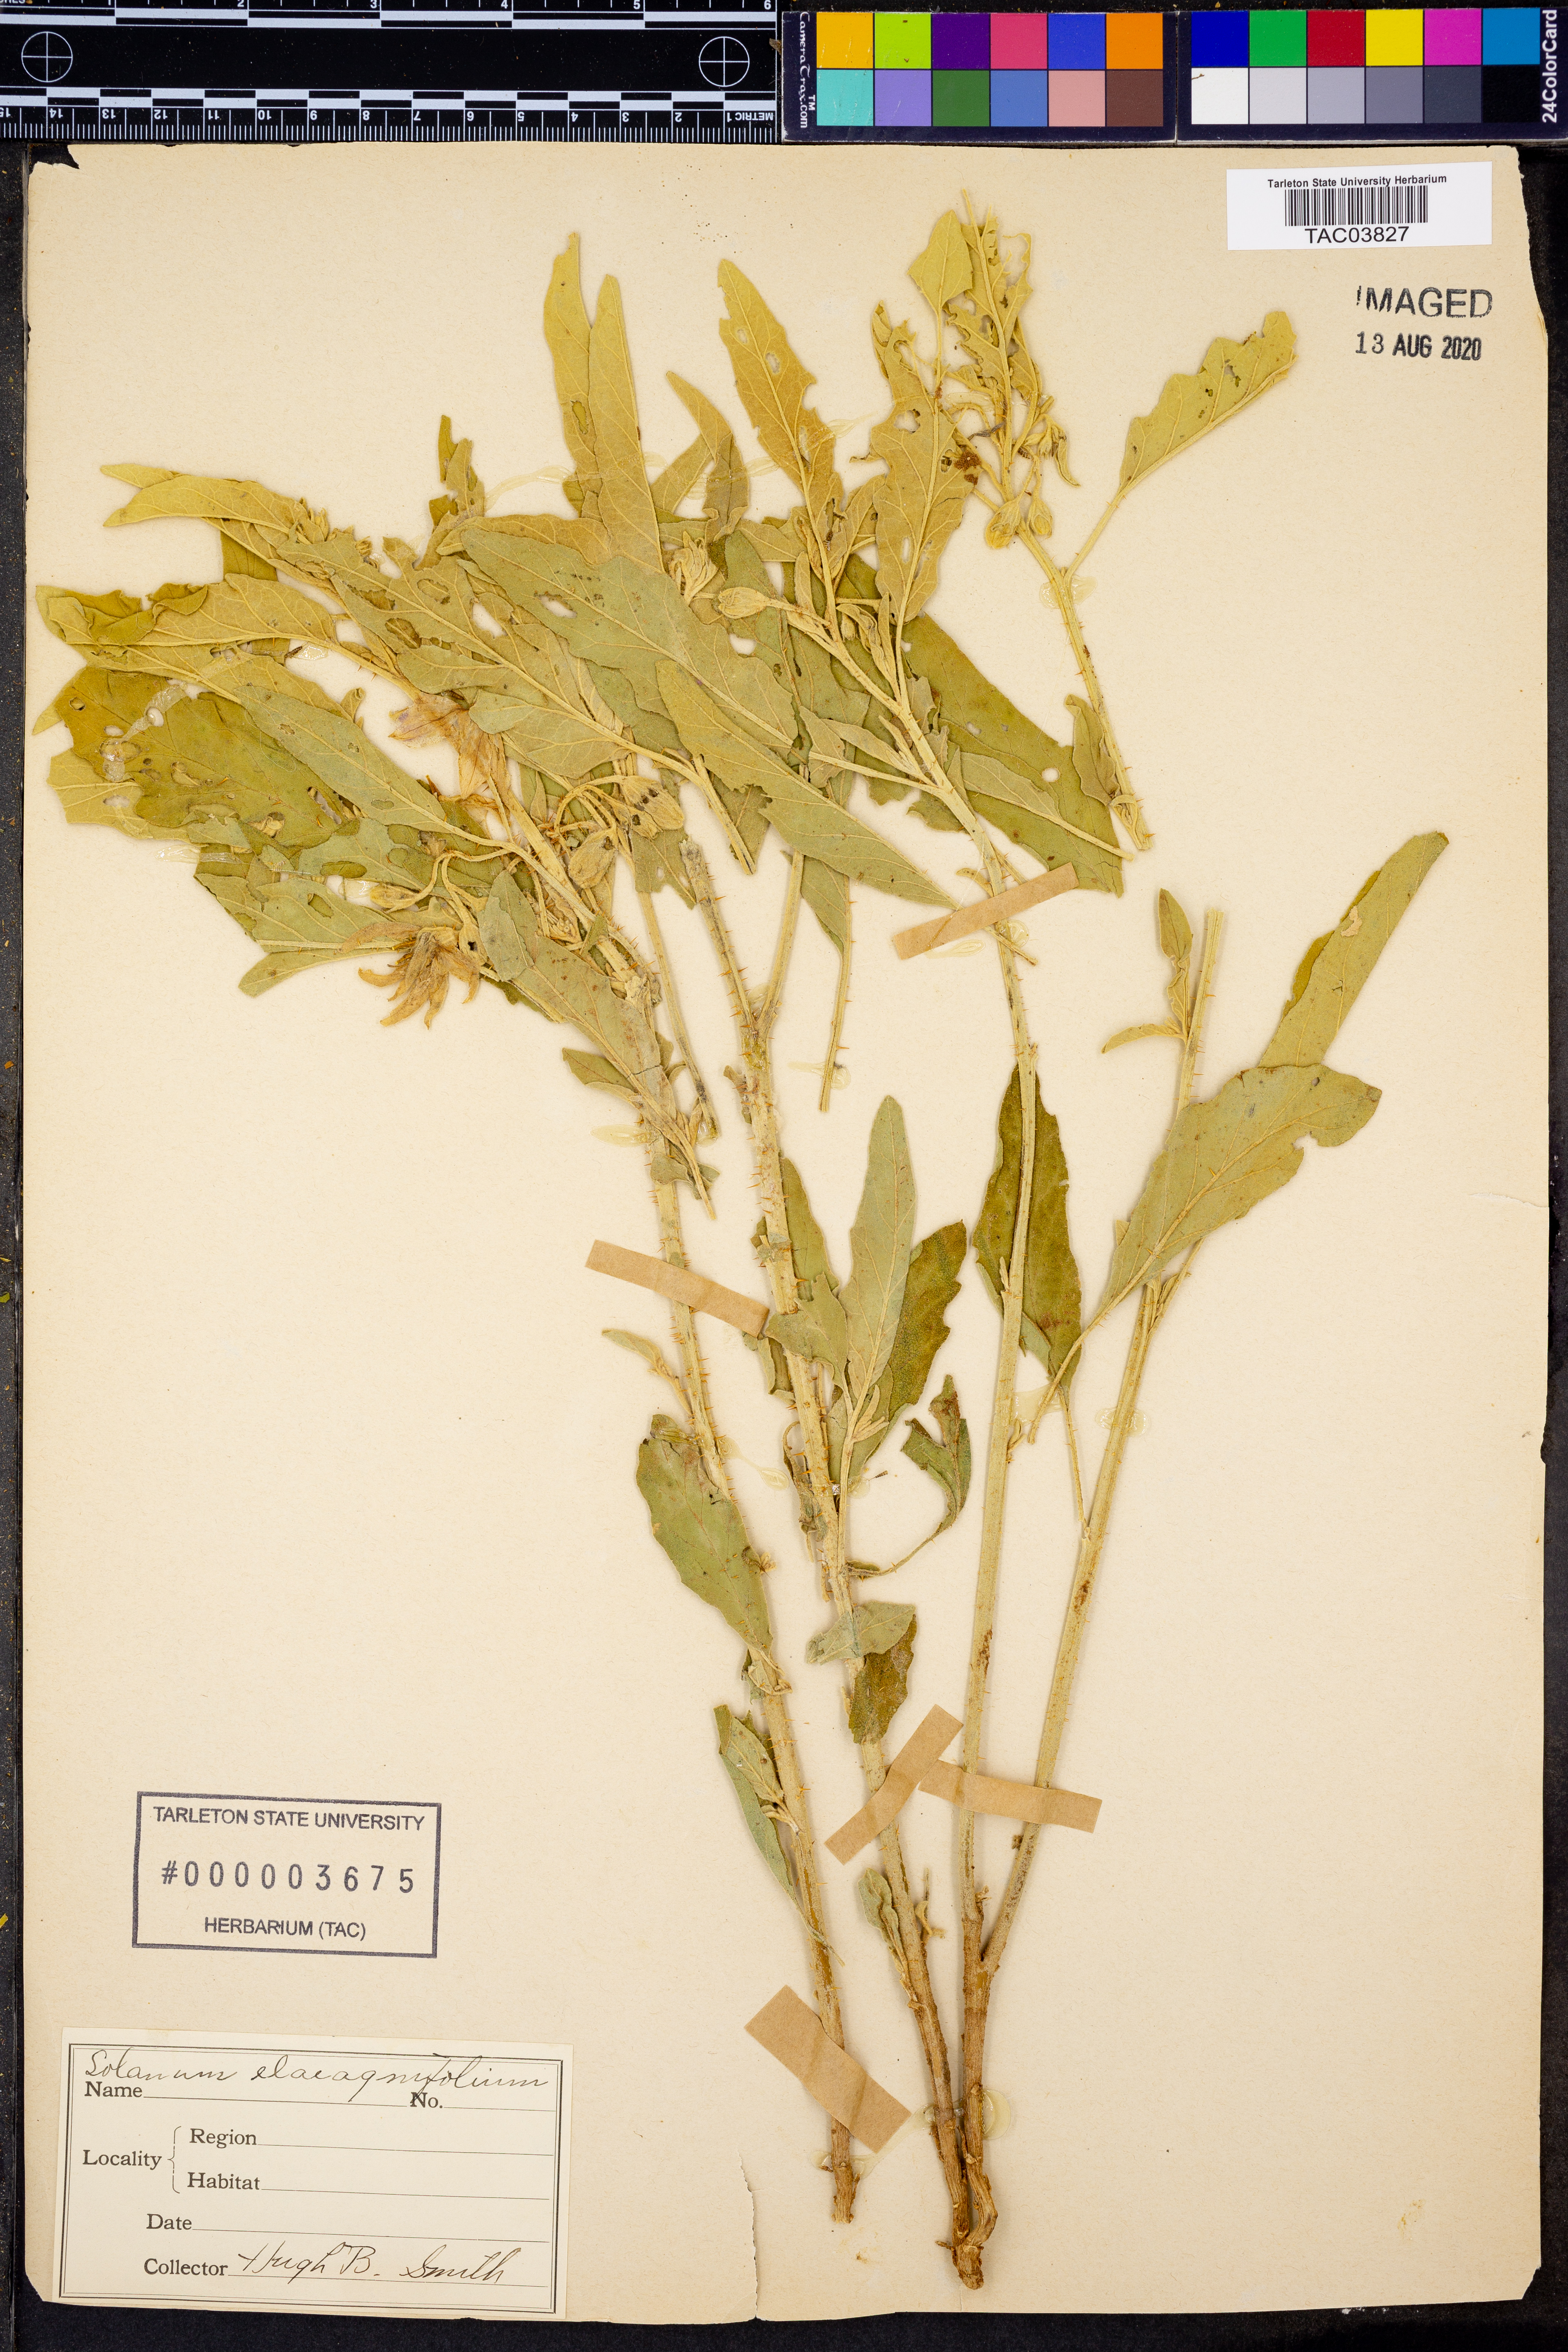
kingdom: Plantae
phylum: Tracheophyta
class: Magnoliopsida
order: Solanales
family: Solanaceae
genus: Solanum
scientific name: Solanum elaeagnifolium
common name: Silverleaf nightshade
